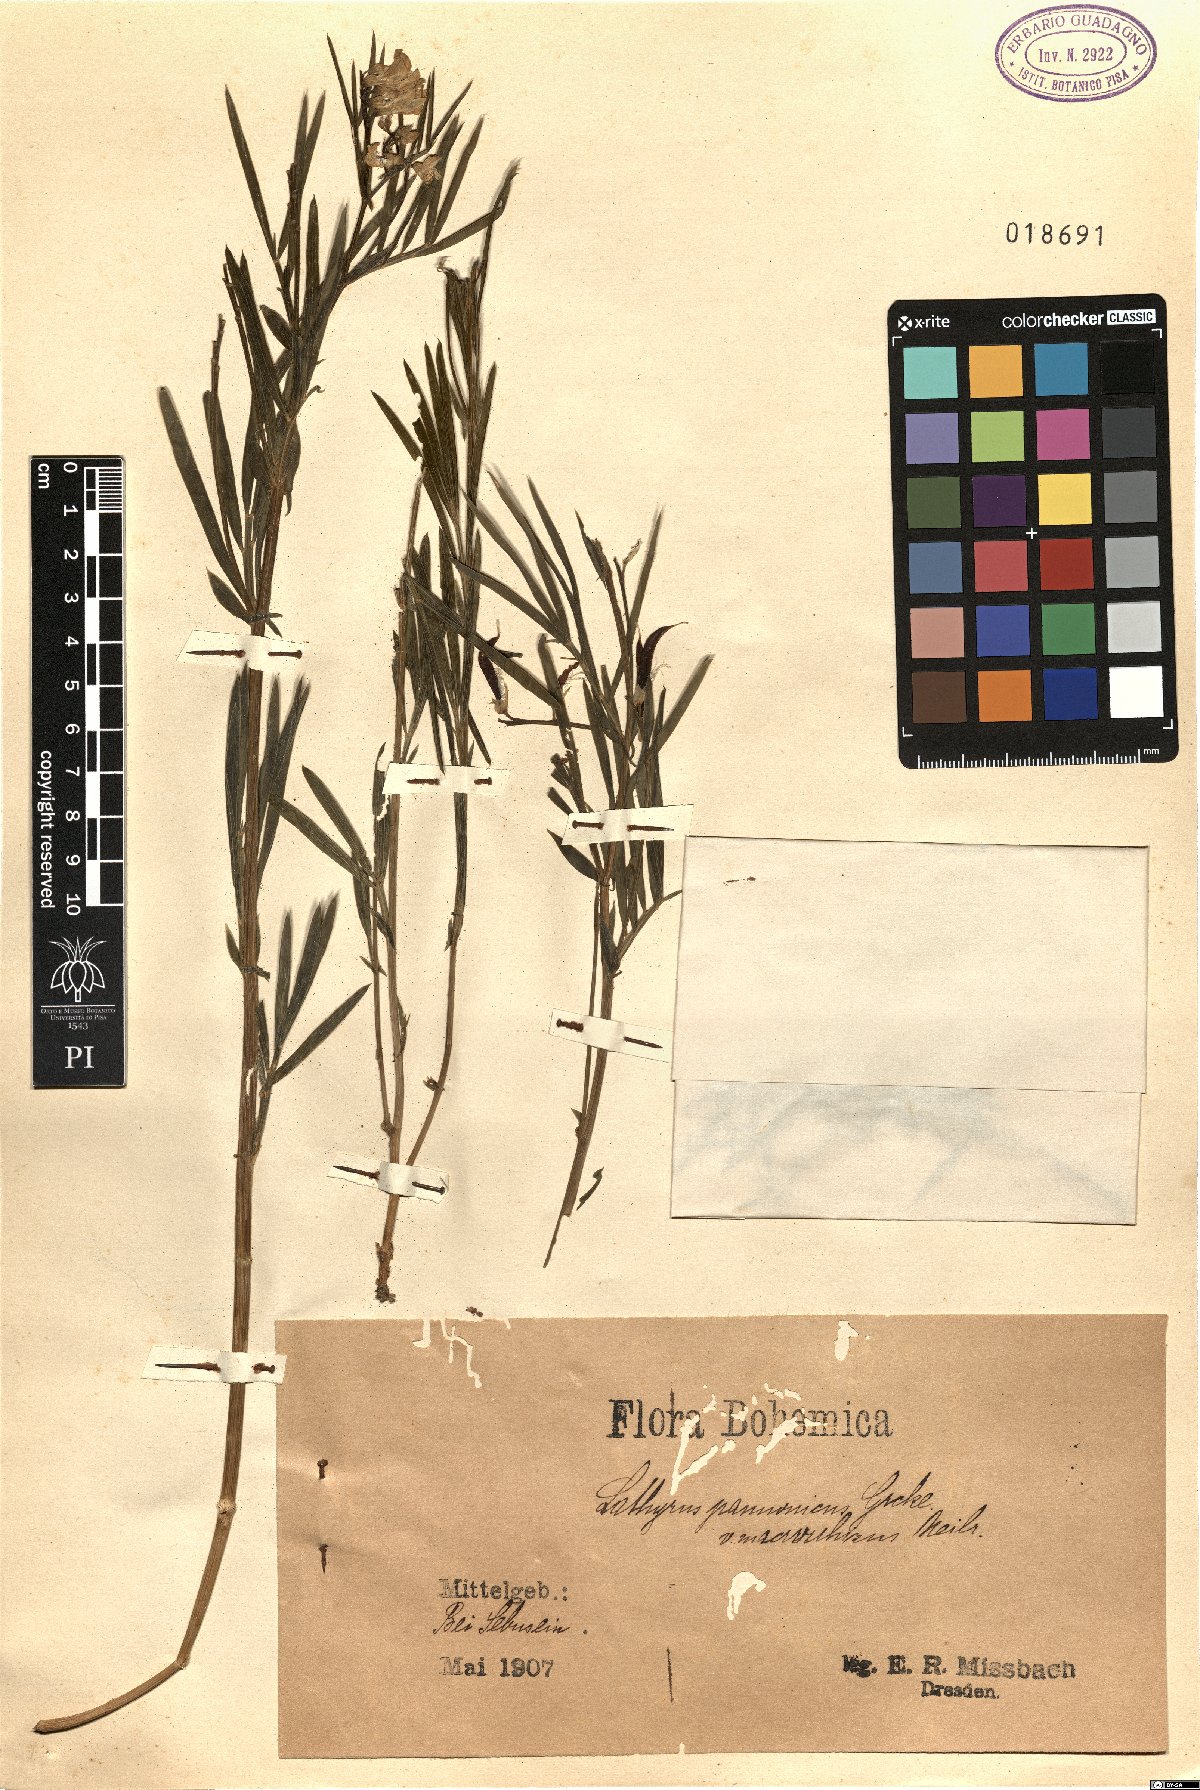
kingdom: Plantae
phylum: Tracheophyta
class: Magnoliopsida
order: Fabales
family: Fabaceae
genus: Lathyrus
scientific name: Lathyrus pannonicus
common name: Pea
